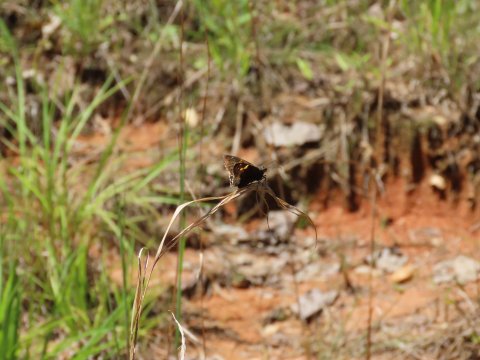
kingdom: Animalia
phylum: Arthropoda
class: Insecta
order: Lepidoptera
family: Hesperiidae
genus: Achalarus
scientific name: Achalarus lyciades
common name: Hoary Edge
